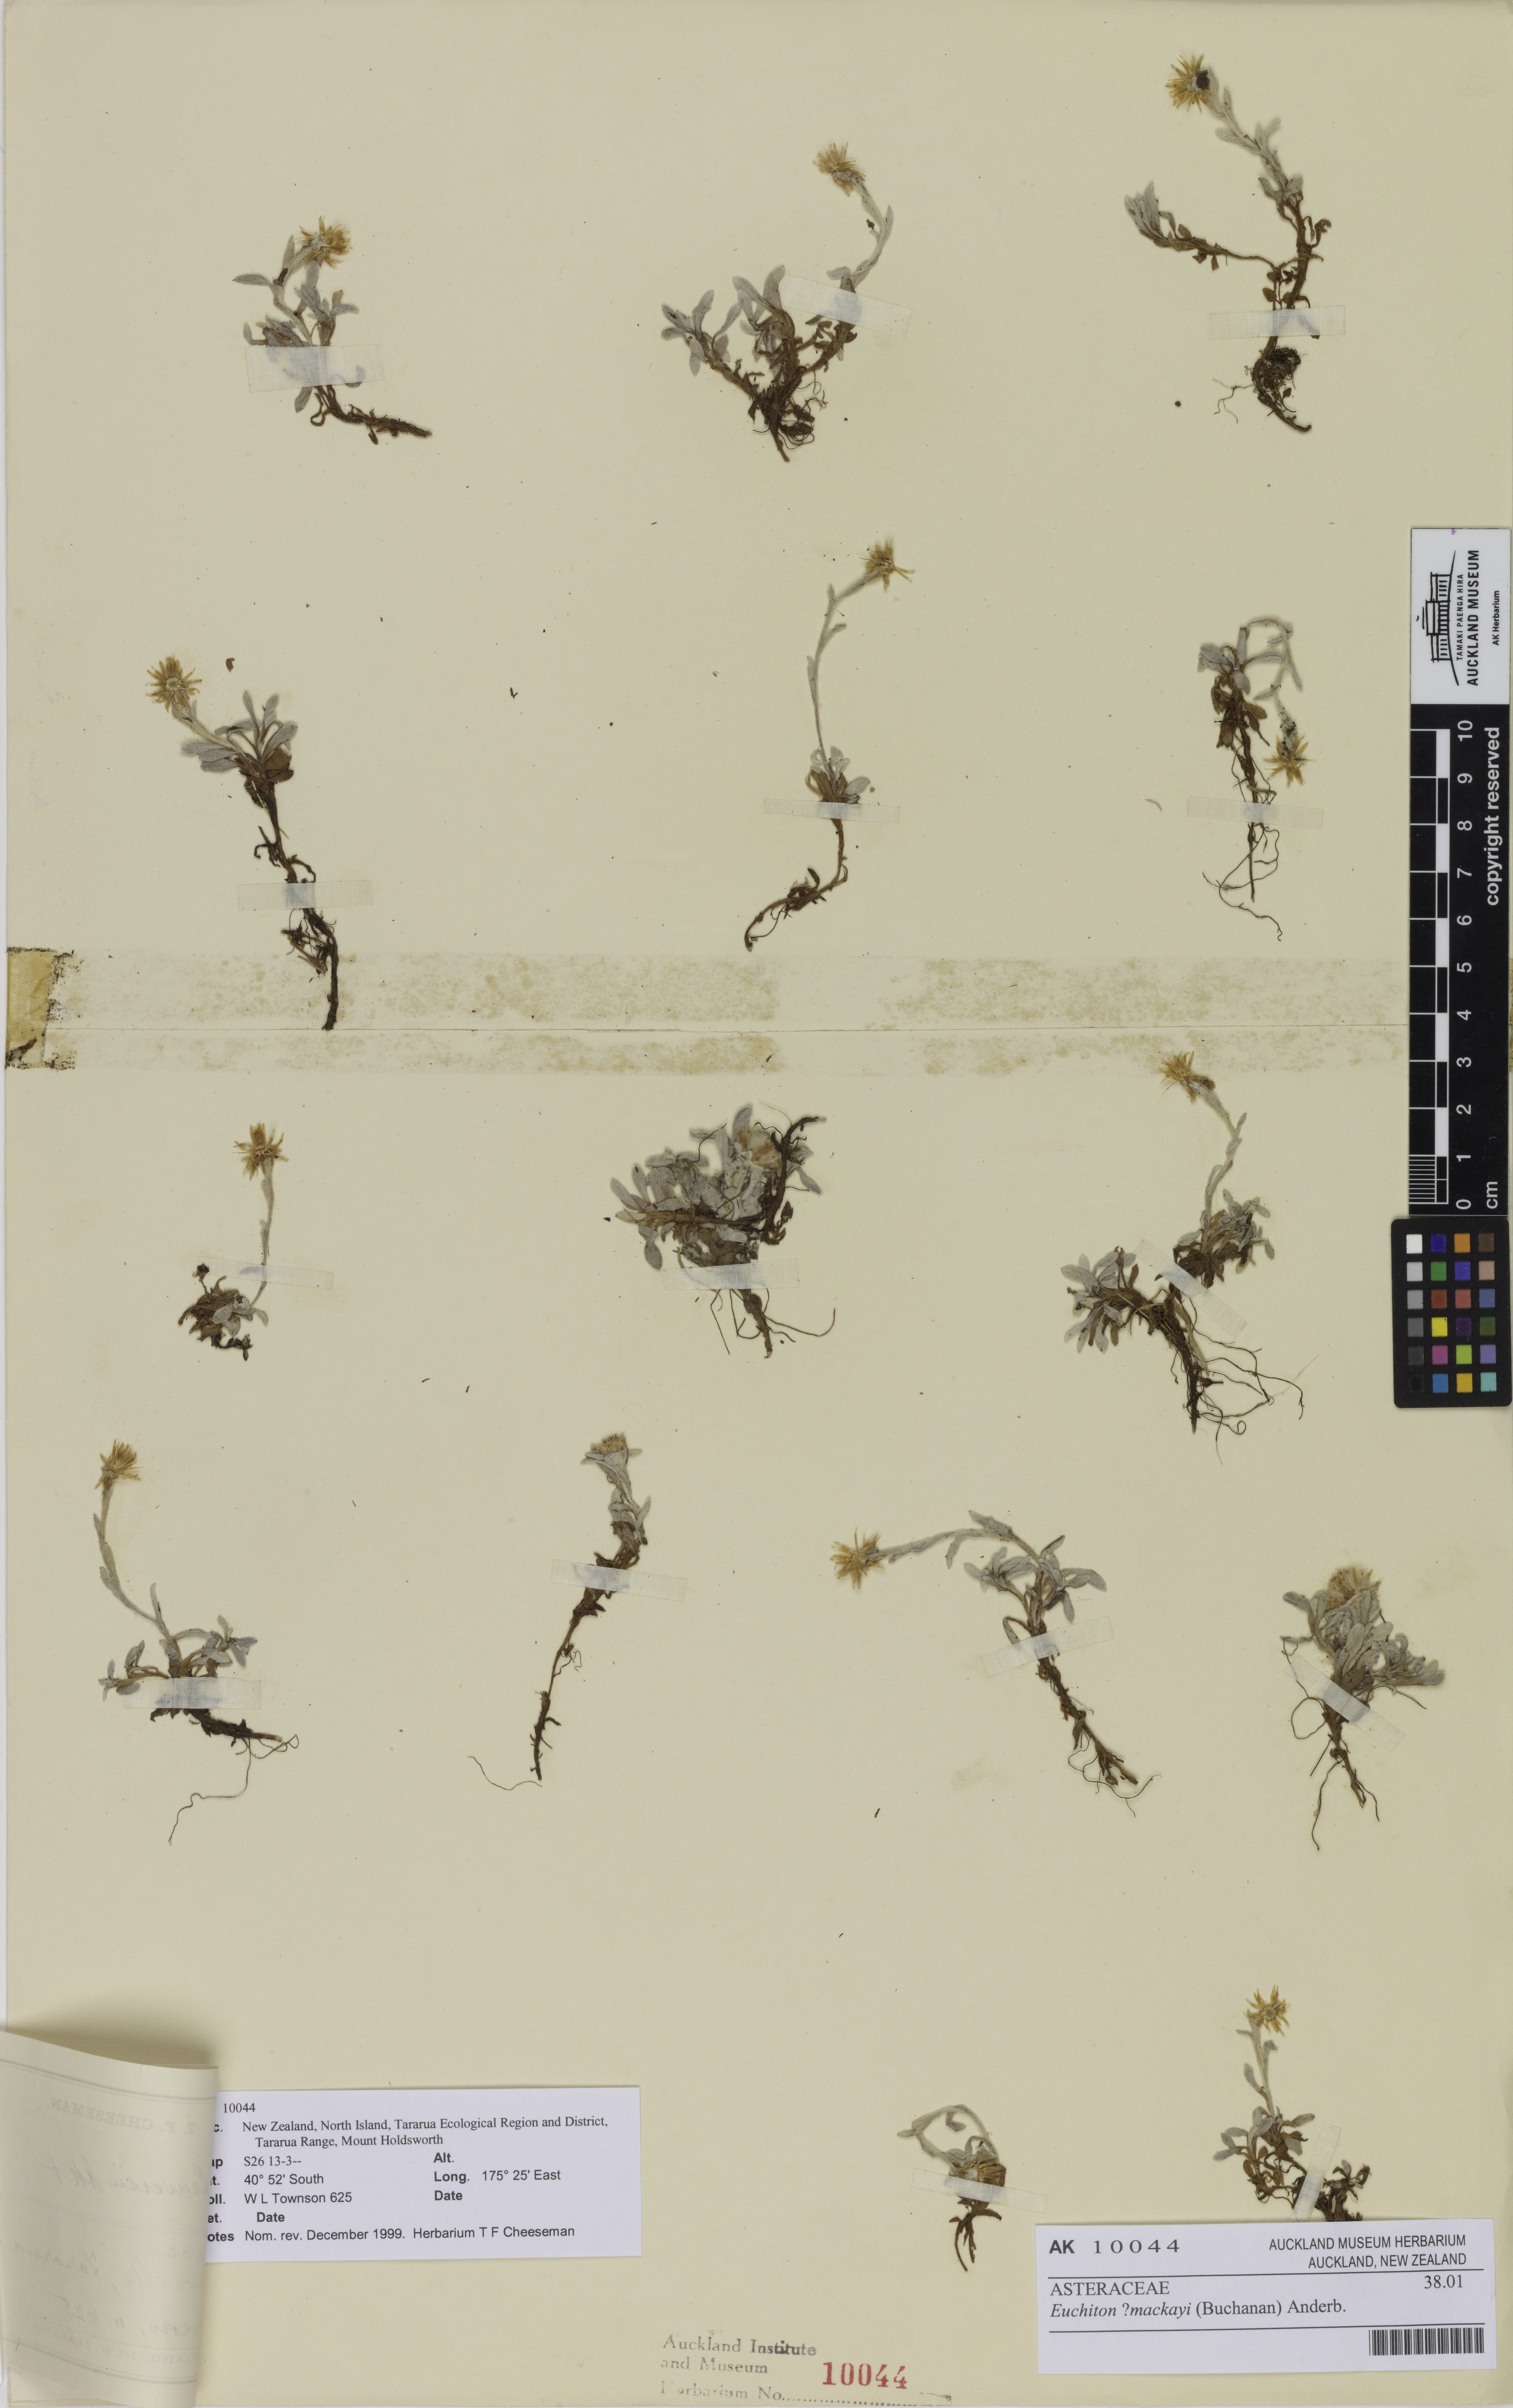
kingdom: Plantae
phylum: Tracheophyta
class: Magnoliopsida
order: Asterales
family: Asteraceae
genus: Argyrotegium
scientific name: Argyrotegium mackayi
